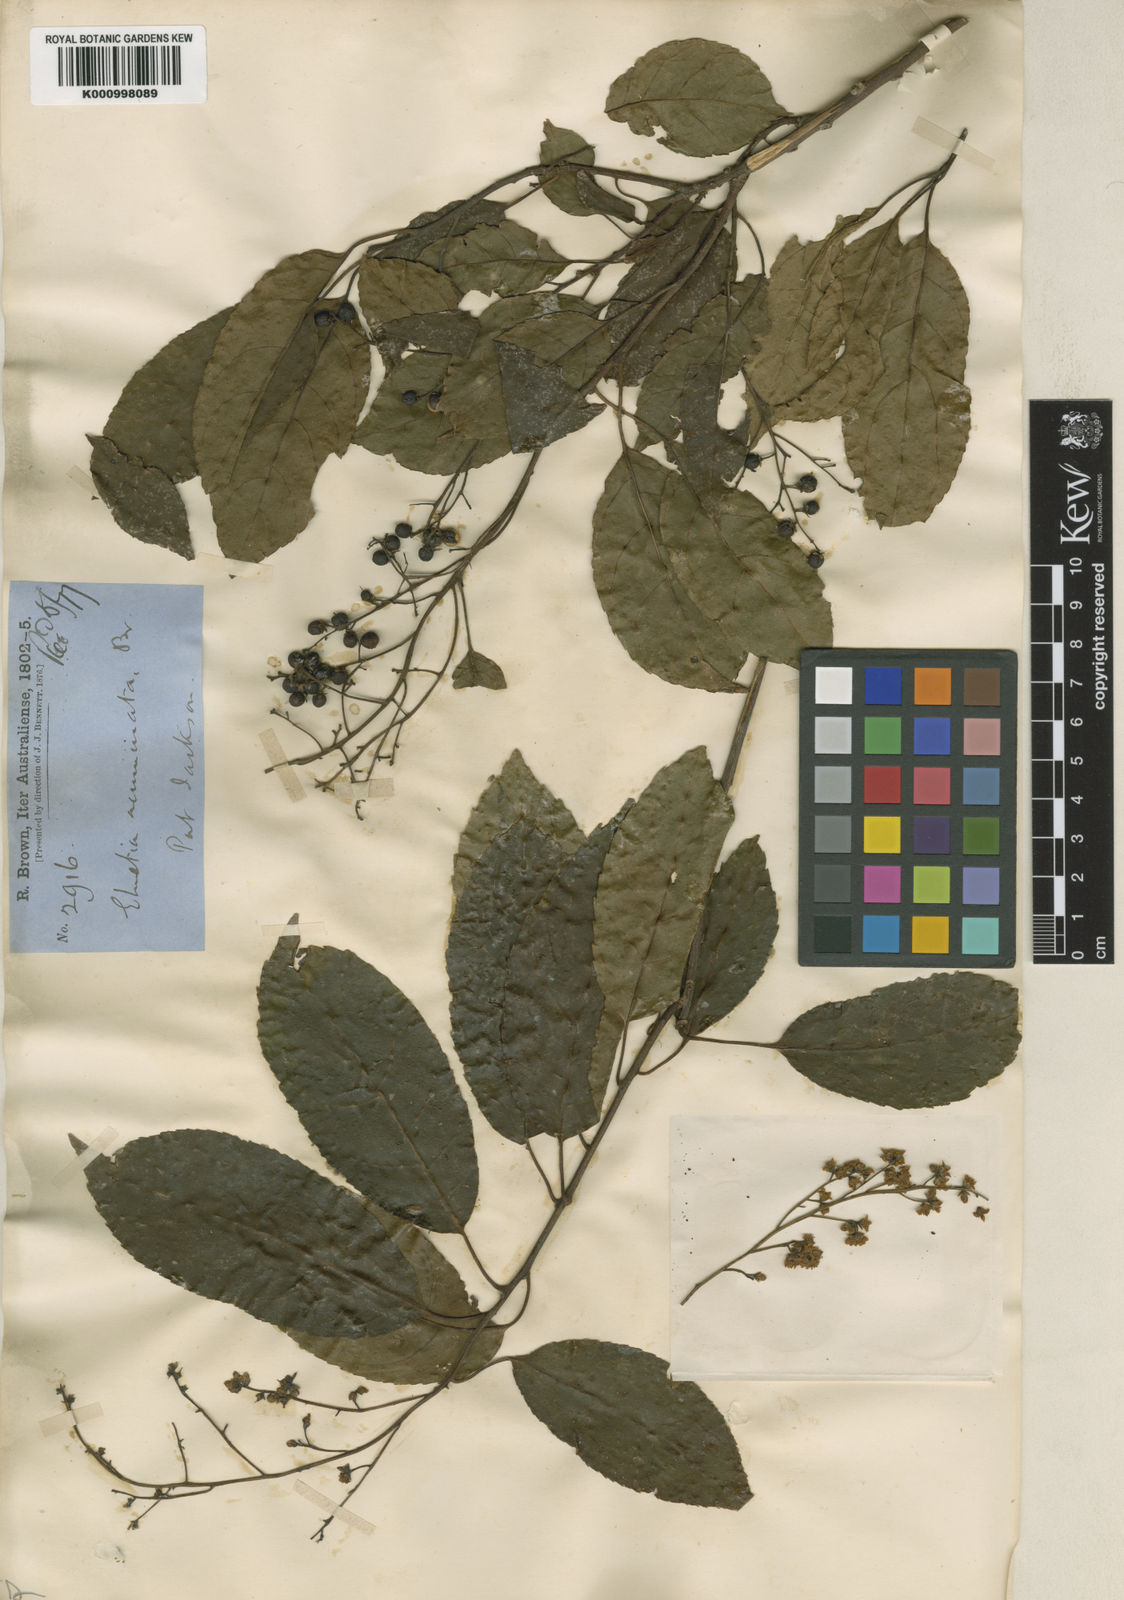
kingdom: Plantae
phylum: Tracheophyta
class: Magnoliopsida
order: Boraginales
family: Ehretiaceae
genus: Ehretia
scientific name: Ehretia acuminata
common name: Kodo wood
